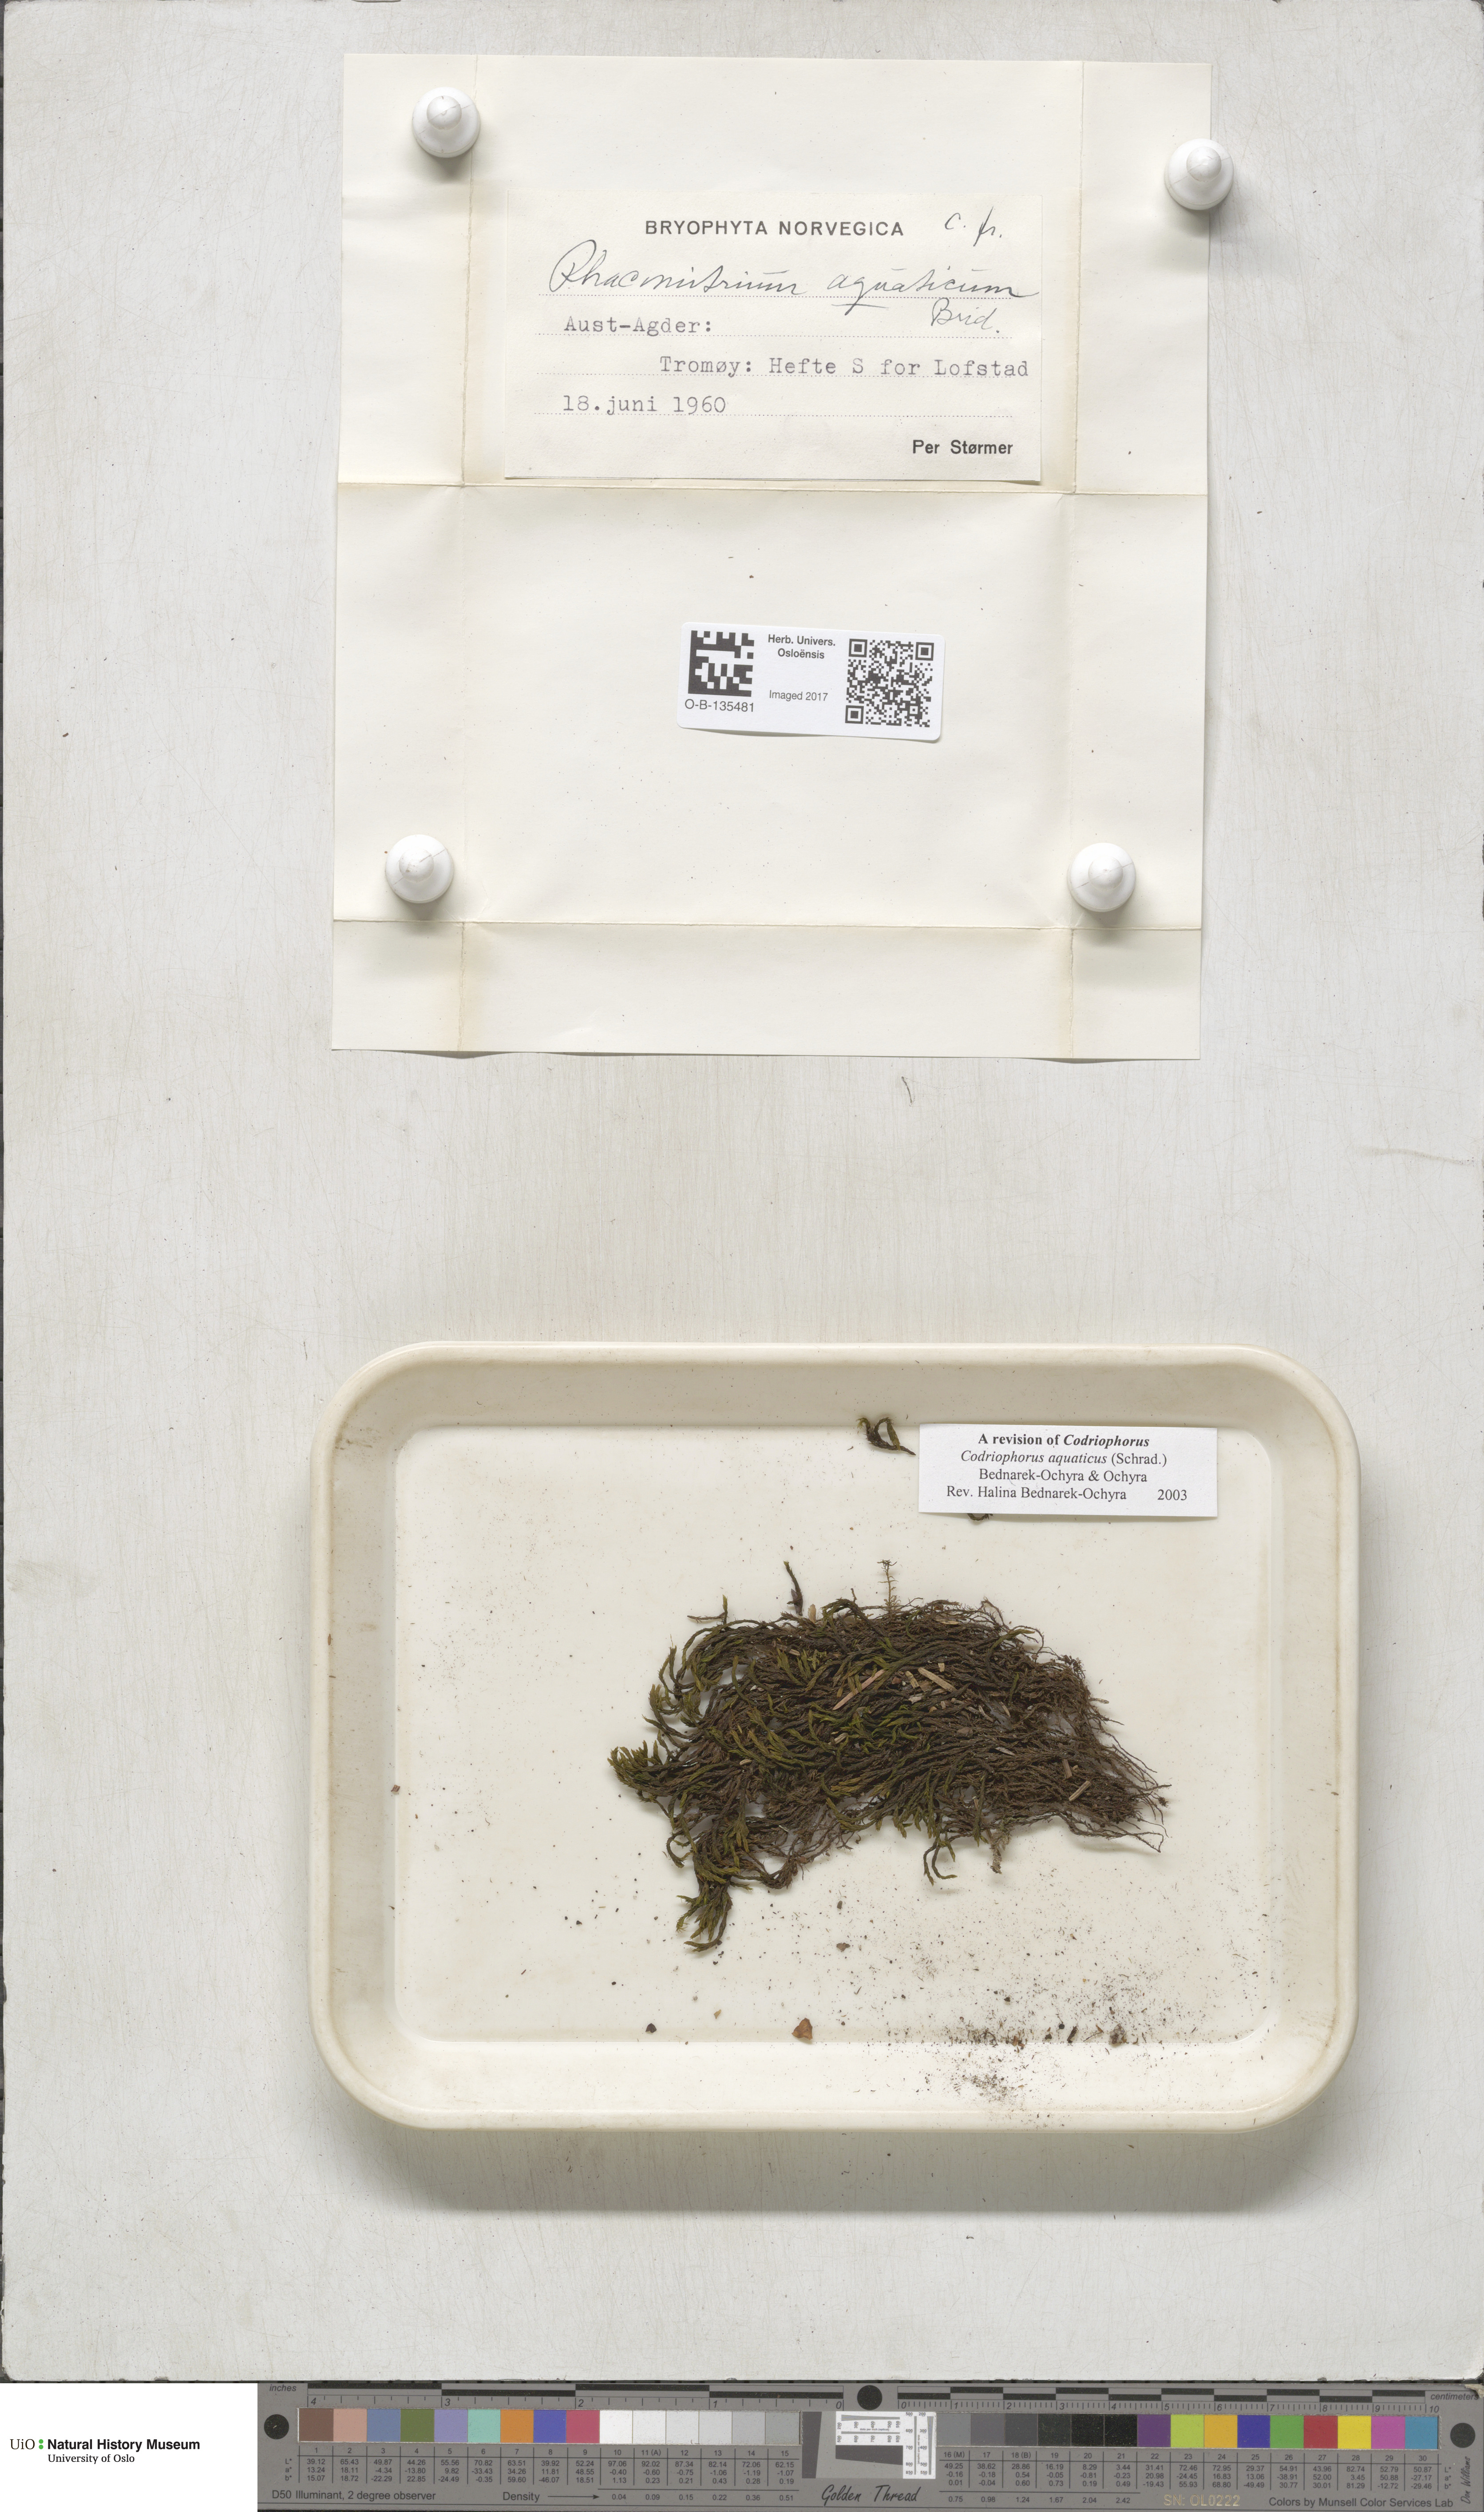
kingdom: Plantae
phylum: Bryophyta
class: Bryopsida
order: Grimmiales
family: Grimmiaceae
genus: Codriophorus
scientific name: Codriophorus aquaticus
